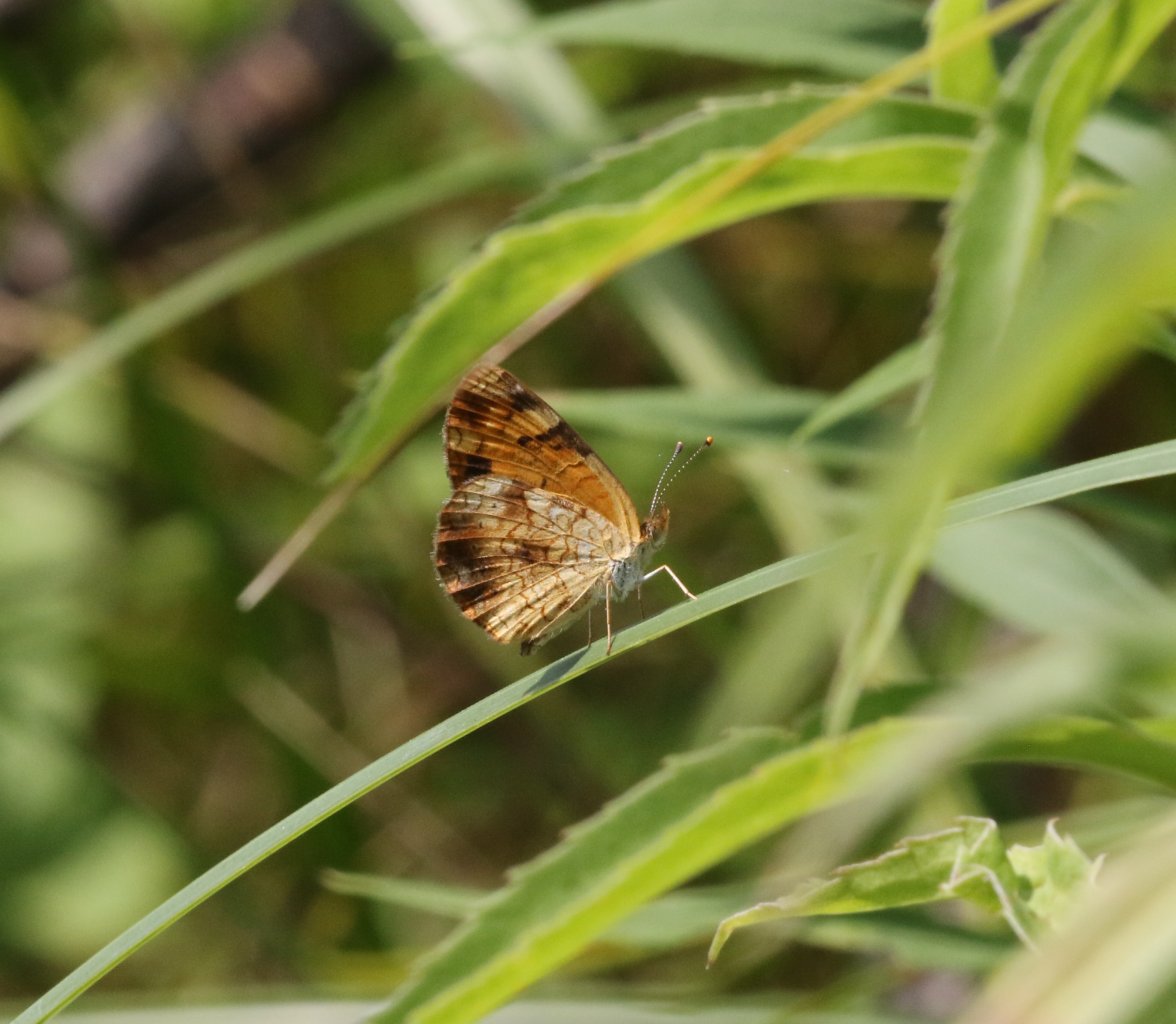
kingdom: Animalia
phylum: Arthropoda
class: Insecta
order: Lepidoptera
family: Nymphalidae
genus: Phyciodes
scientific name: Phyciodes tharos
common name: Northern Crescent
